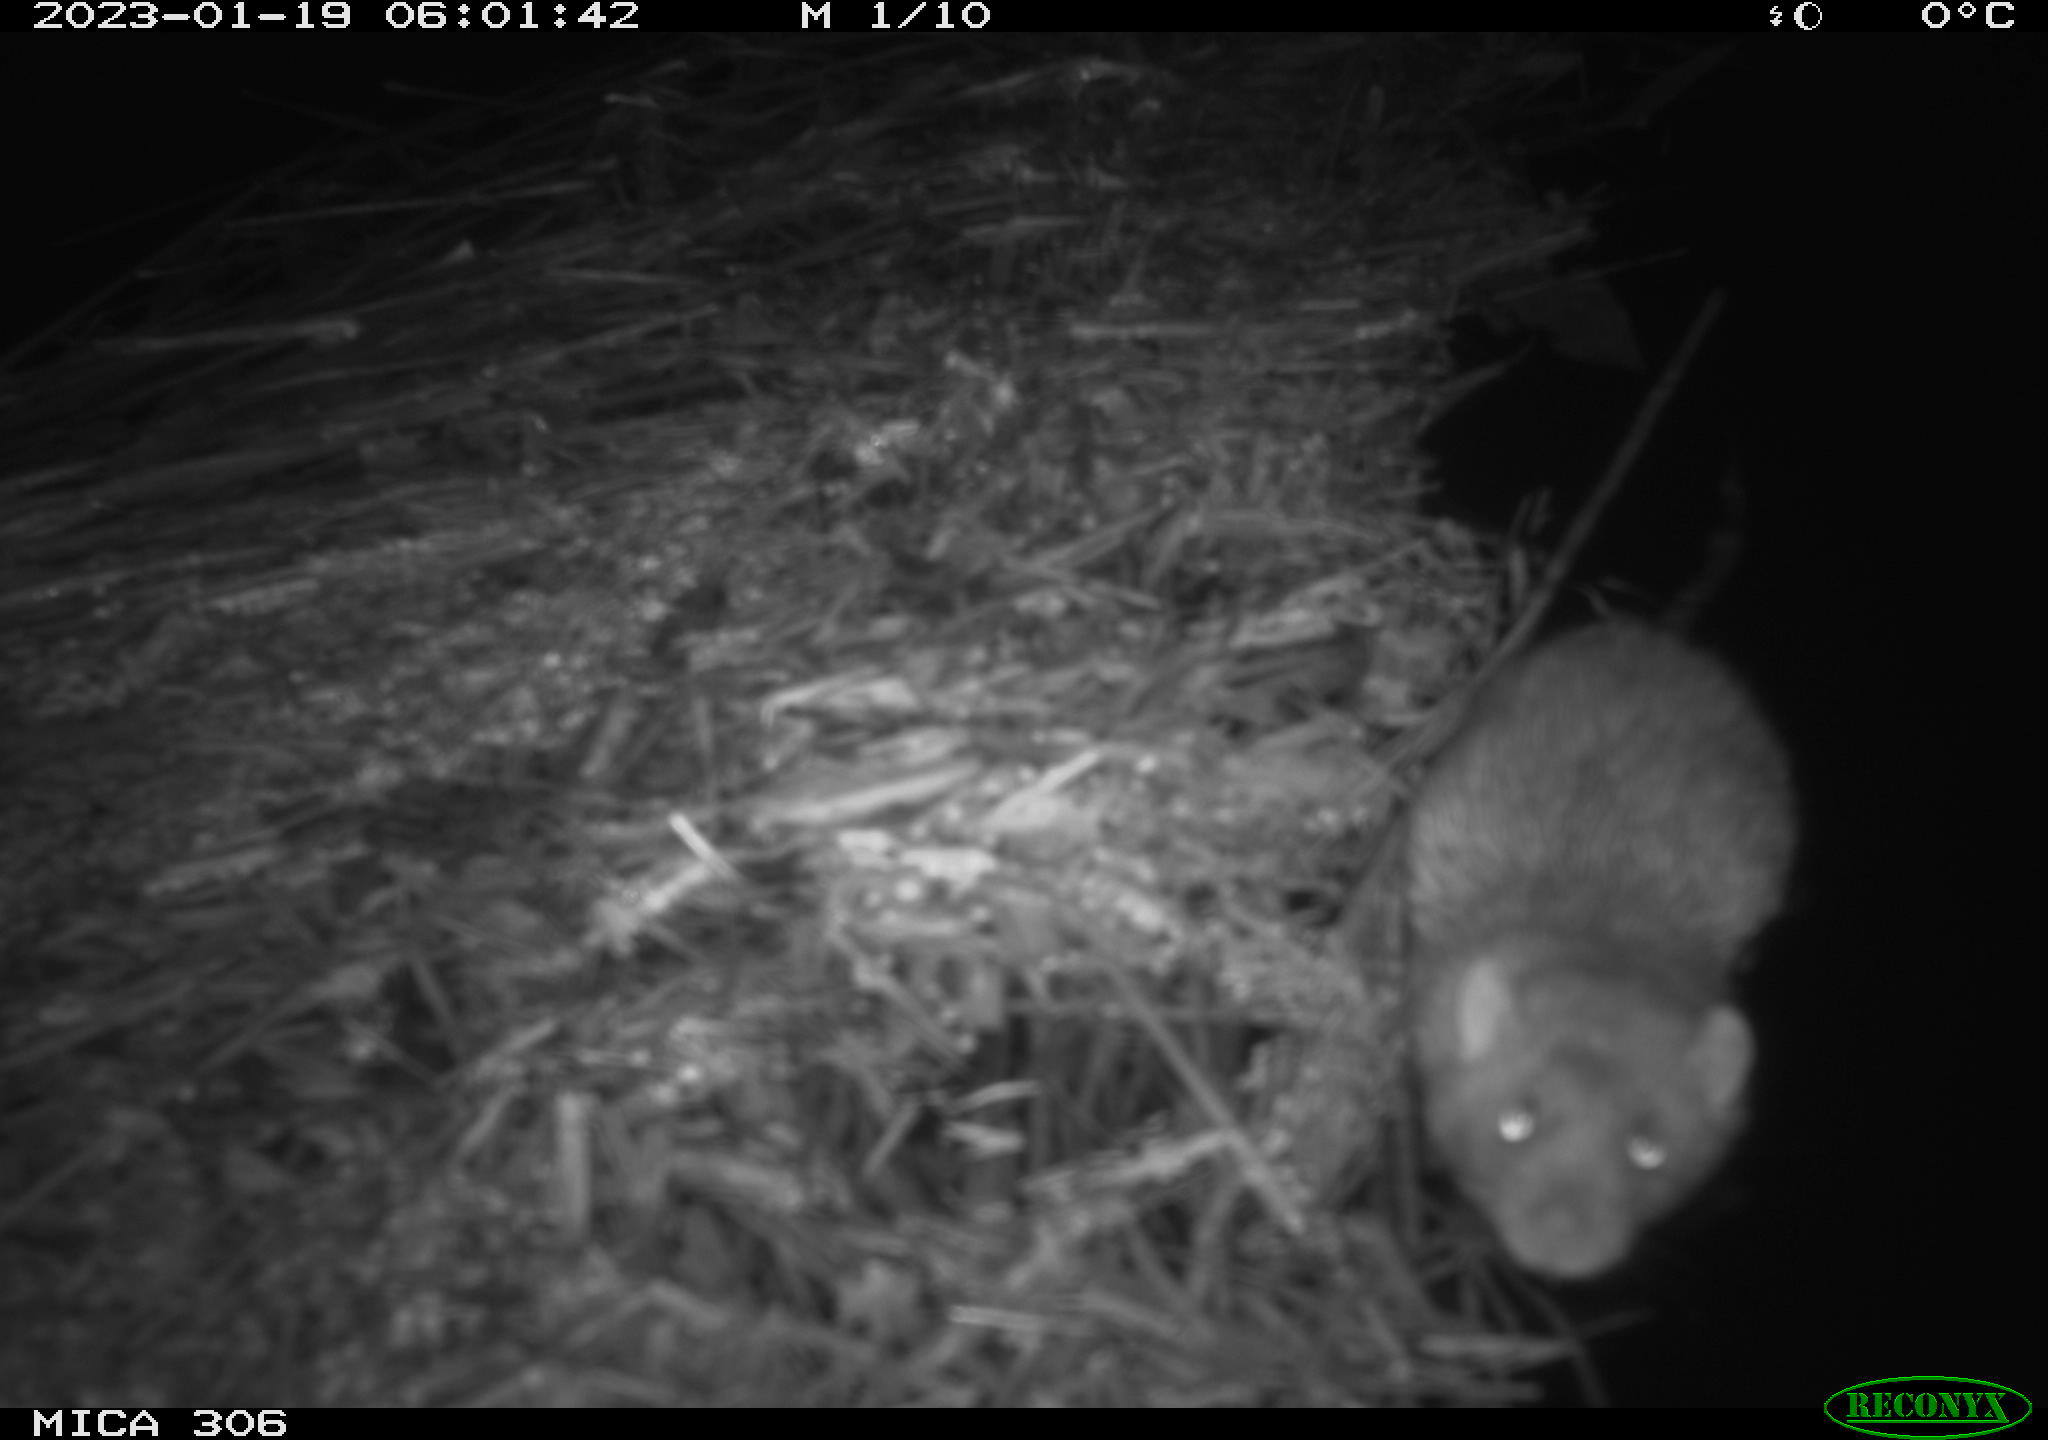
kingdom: Animalia
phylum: Chordata
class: Mammalia
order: Rodentia
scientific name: Rodentia
